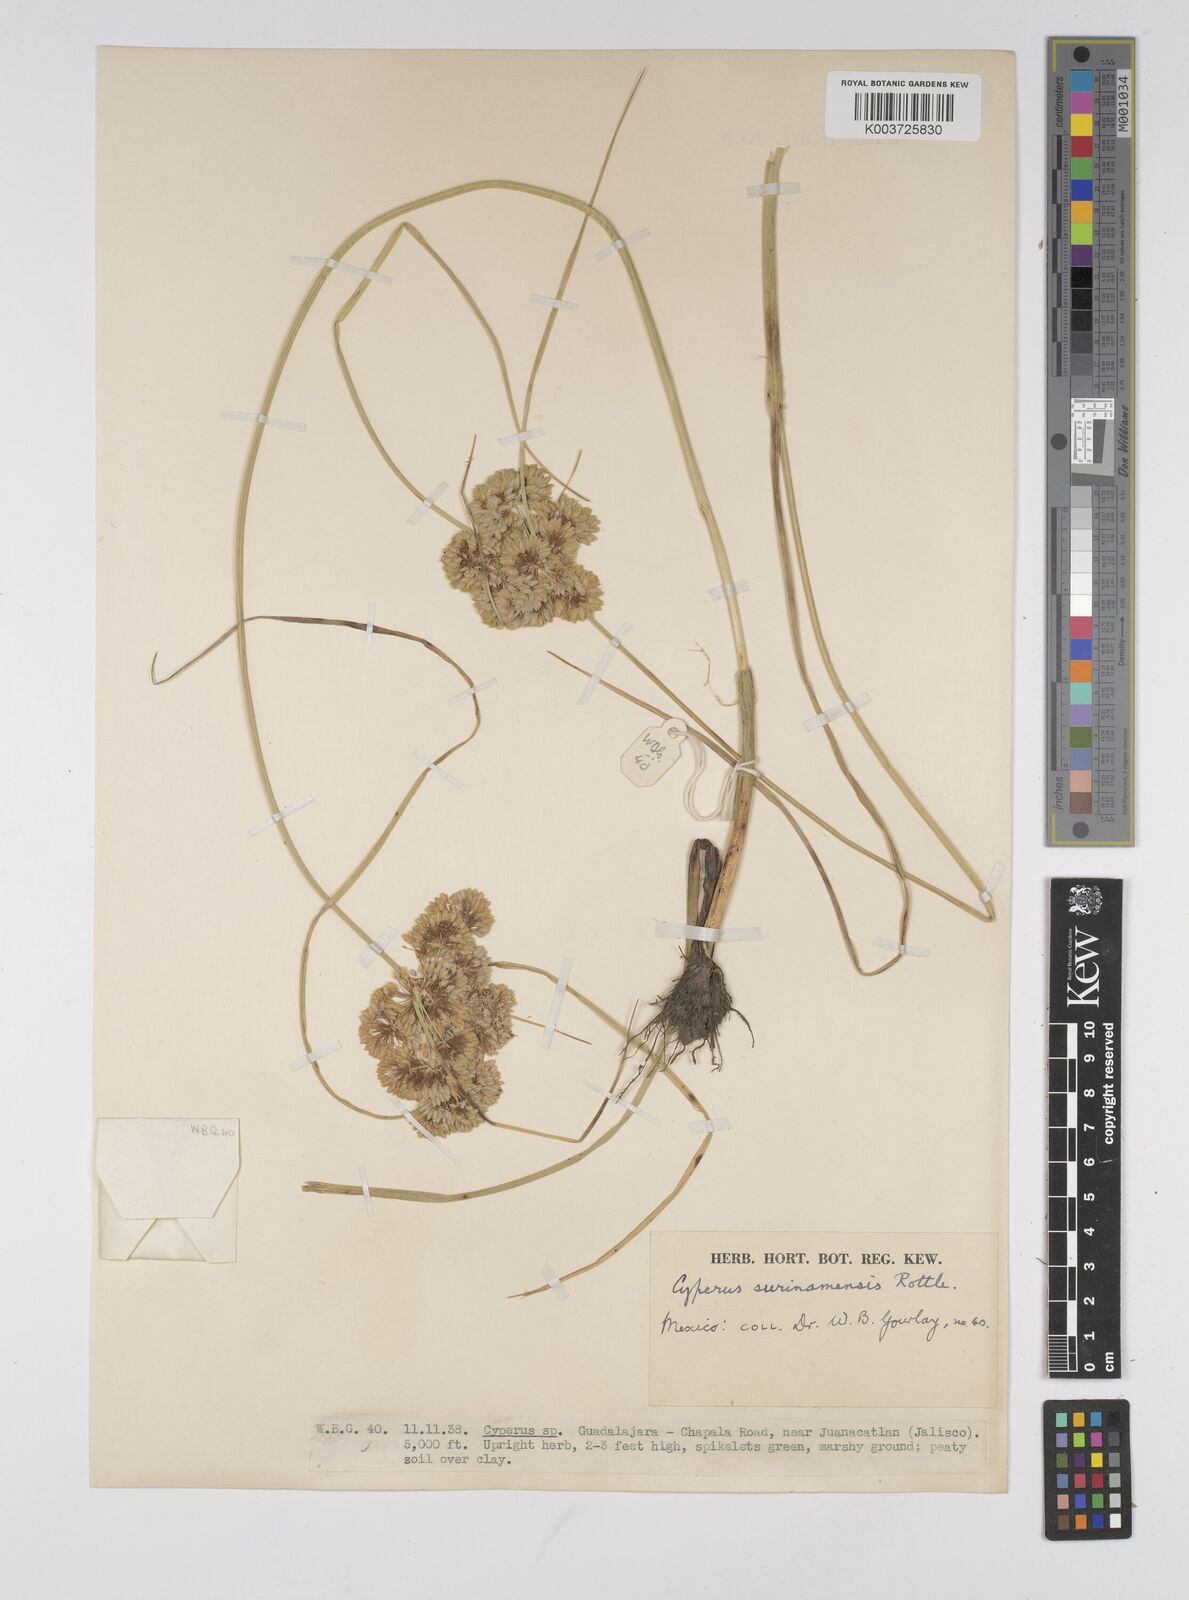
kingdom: Plantae
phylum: Tracheophyta
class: Liliopsida
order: Poales
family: Cyperaceae
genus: Cyperus
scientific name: Cyperus surinamensis
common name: Tropical flat sedge
